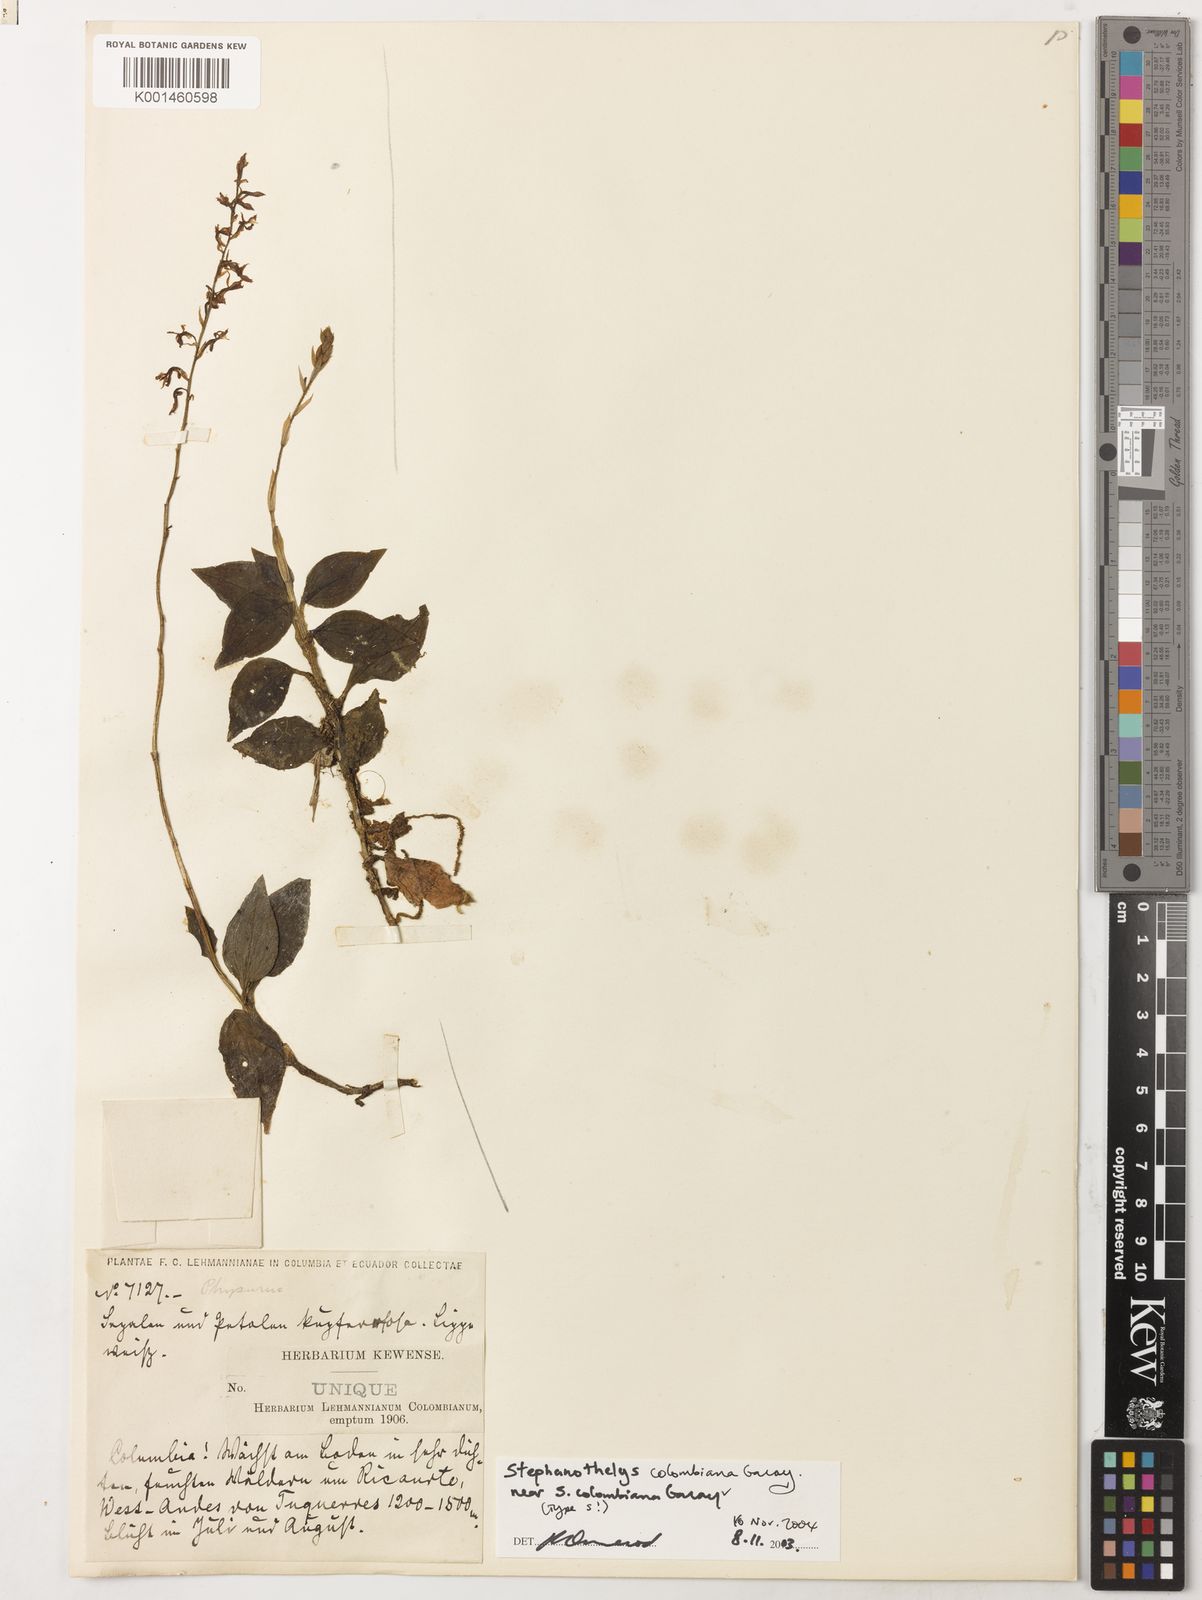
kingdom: Plantae
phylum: Tracheophyta
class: Liliopsida
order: Asparagales
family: Orchidaceae
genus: Stephanothelys
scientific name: Stephanothelys colombiana
